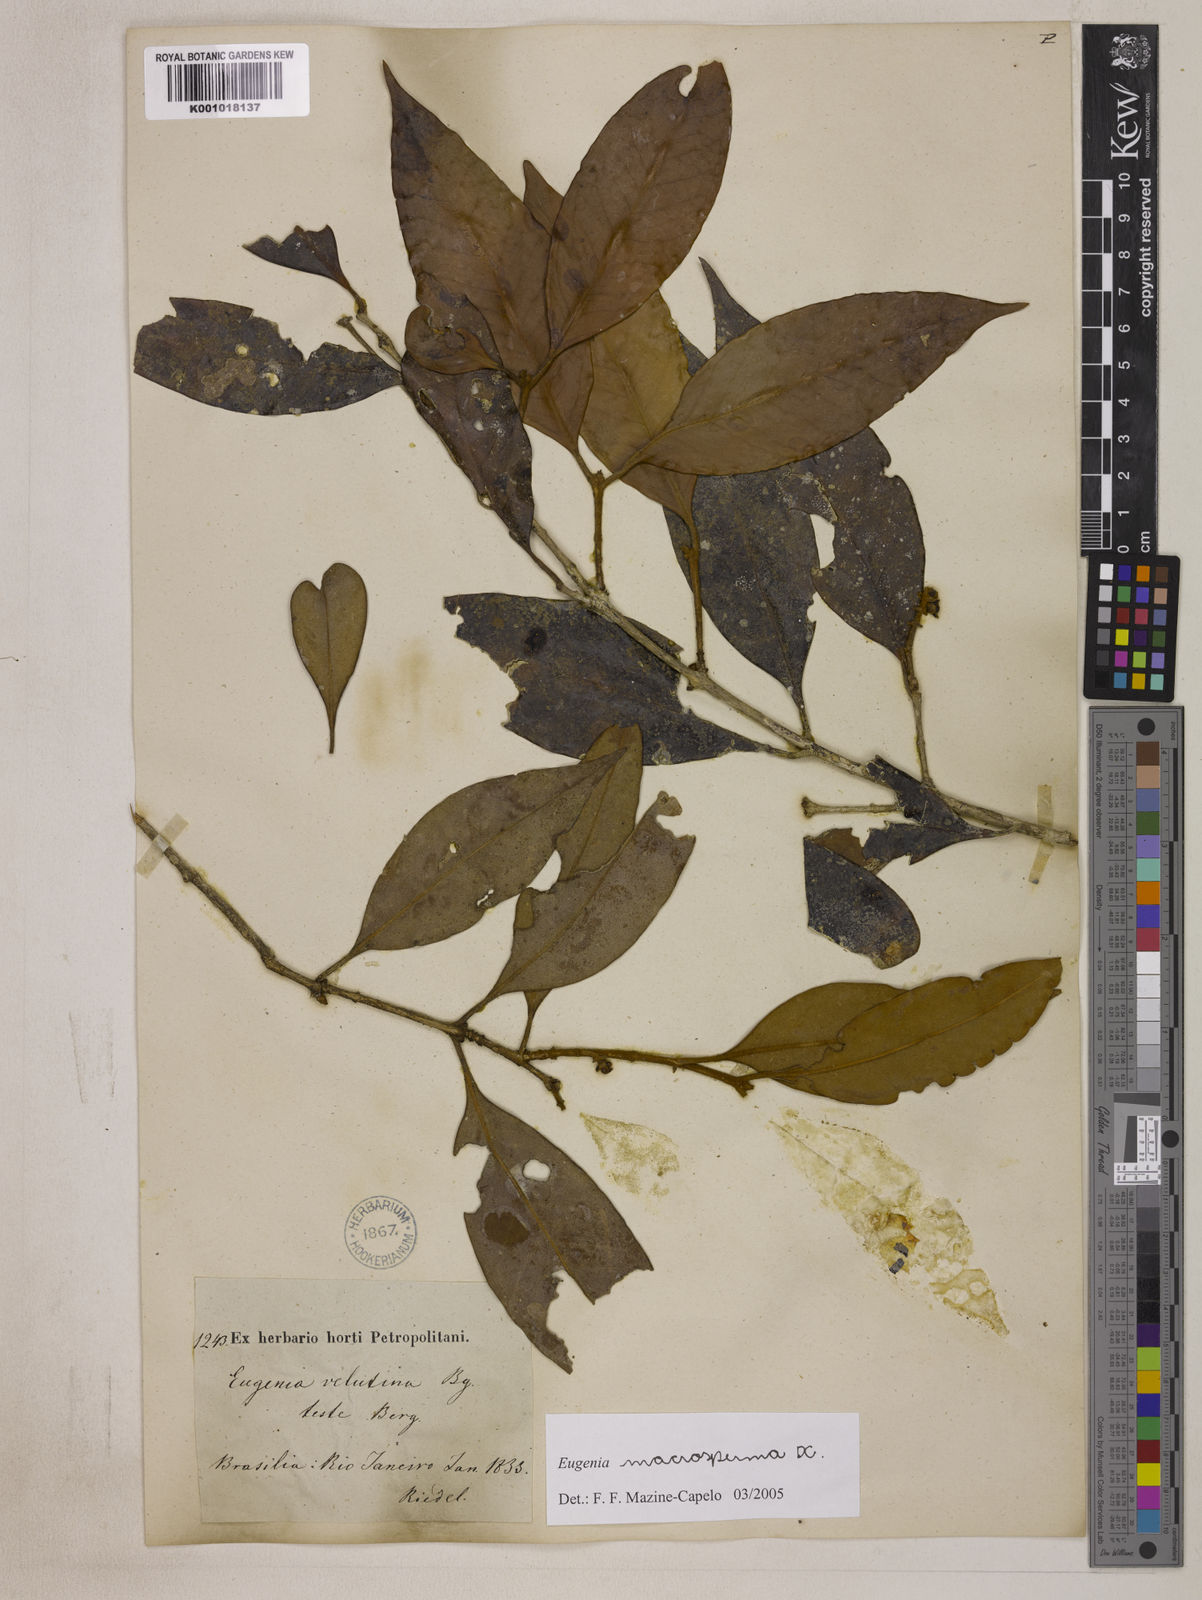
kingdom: Plantae
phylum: Tracheophyta
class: Magnoliopsida
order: Myrtales
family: Myrtaceae
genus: Eugenia
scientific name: Eugenia macrosperma
